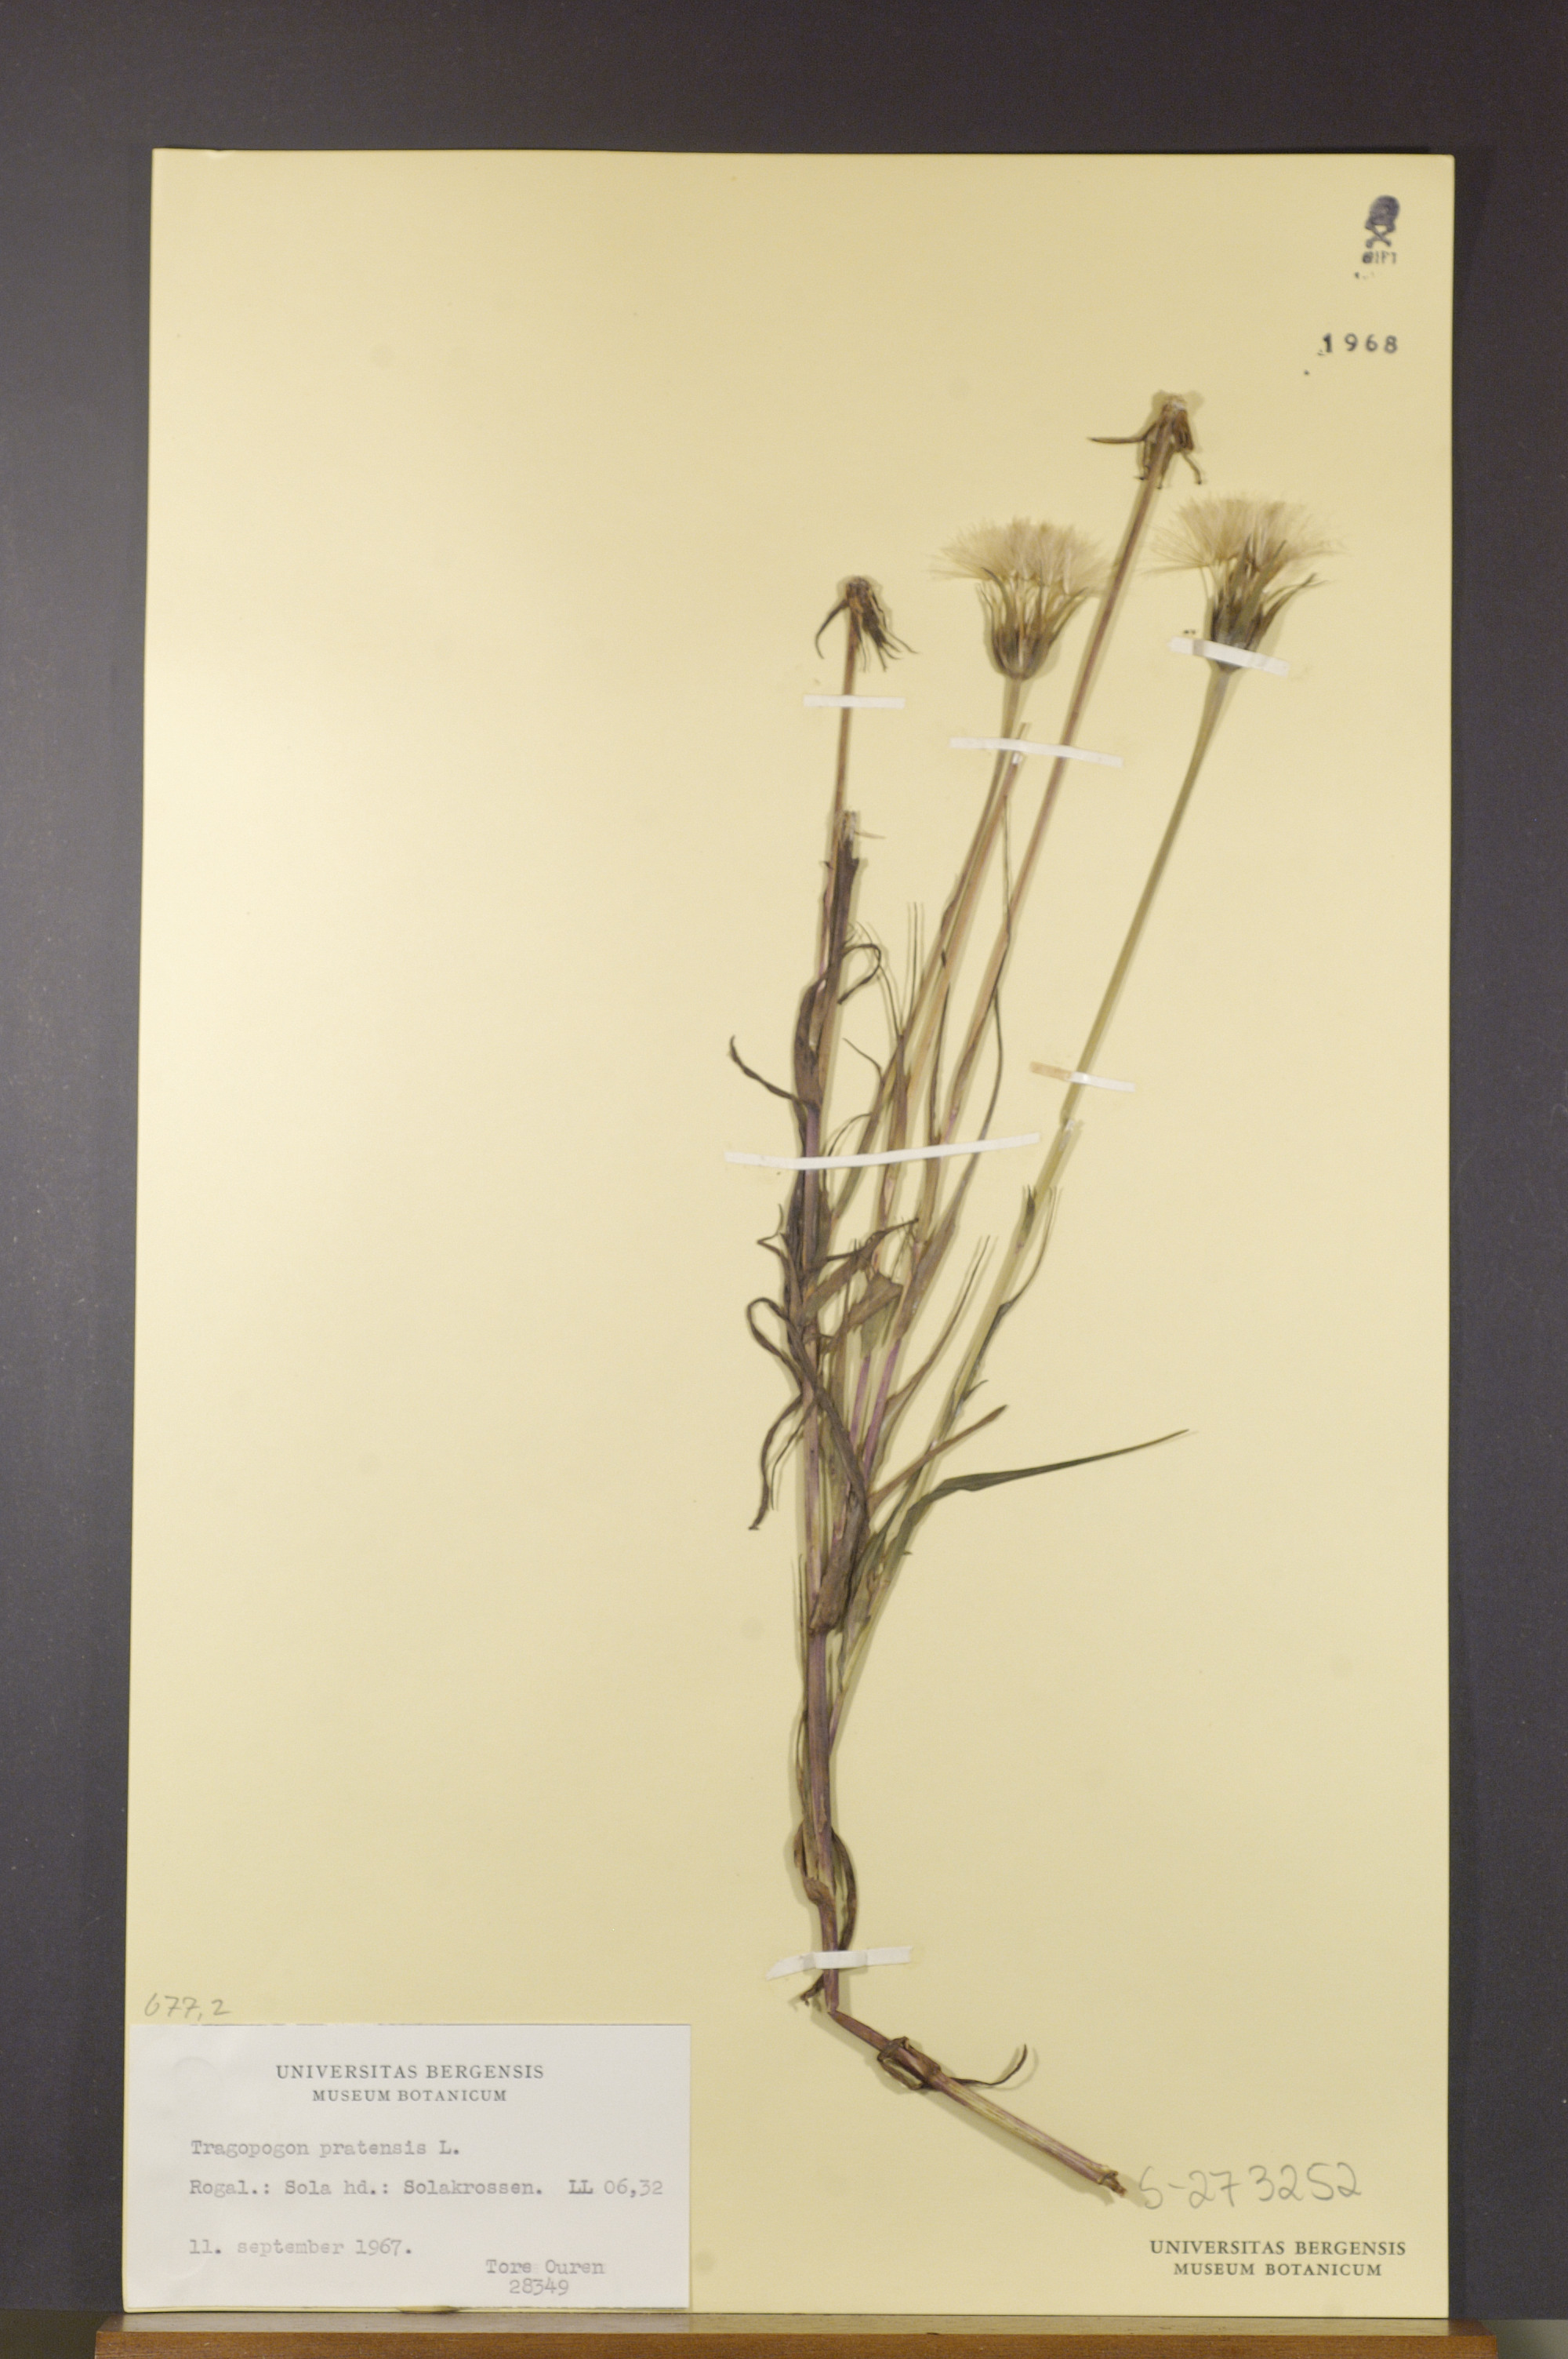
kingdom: Plantae
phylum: Tracheophyta
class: Magnoliopsida
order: Asterales
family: Asteraceae
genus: Tragopogon
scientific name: Tragopogon pratensis
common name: Goat's-beard
